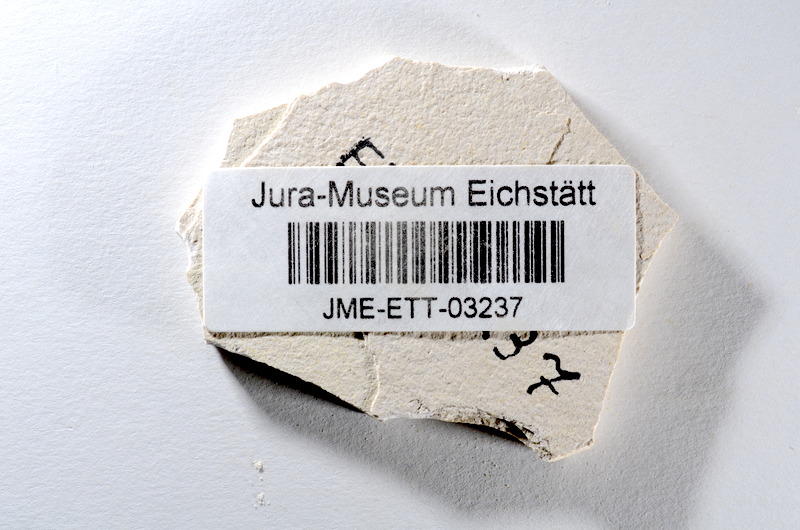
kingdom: Animalia
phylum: Chordata
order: Salmoniformes
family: Orthogonikleithridae
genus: Orthogonikleithrus
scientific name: Orthogonikleithrus hoelli
